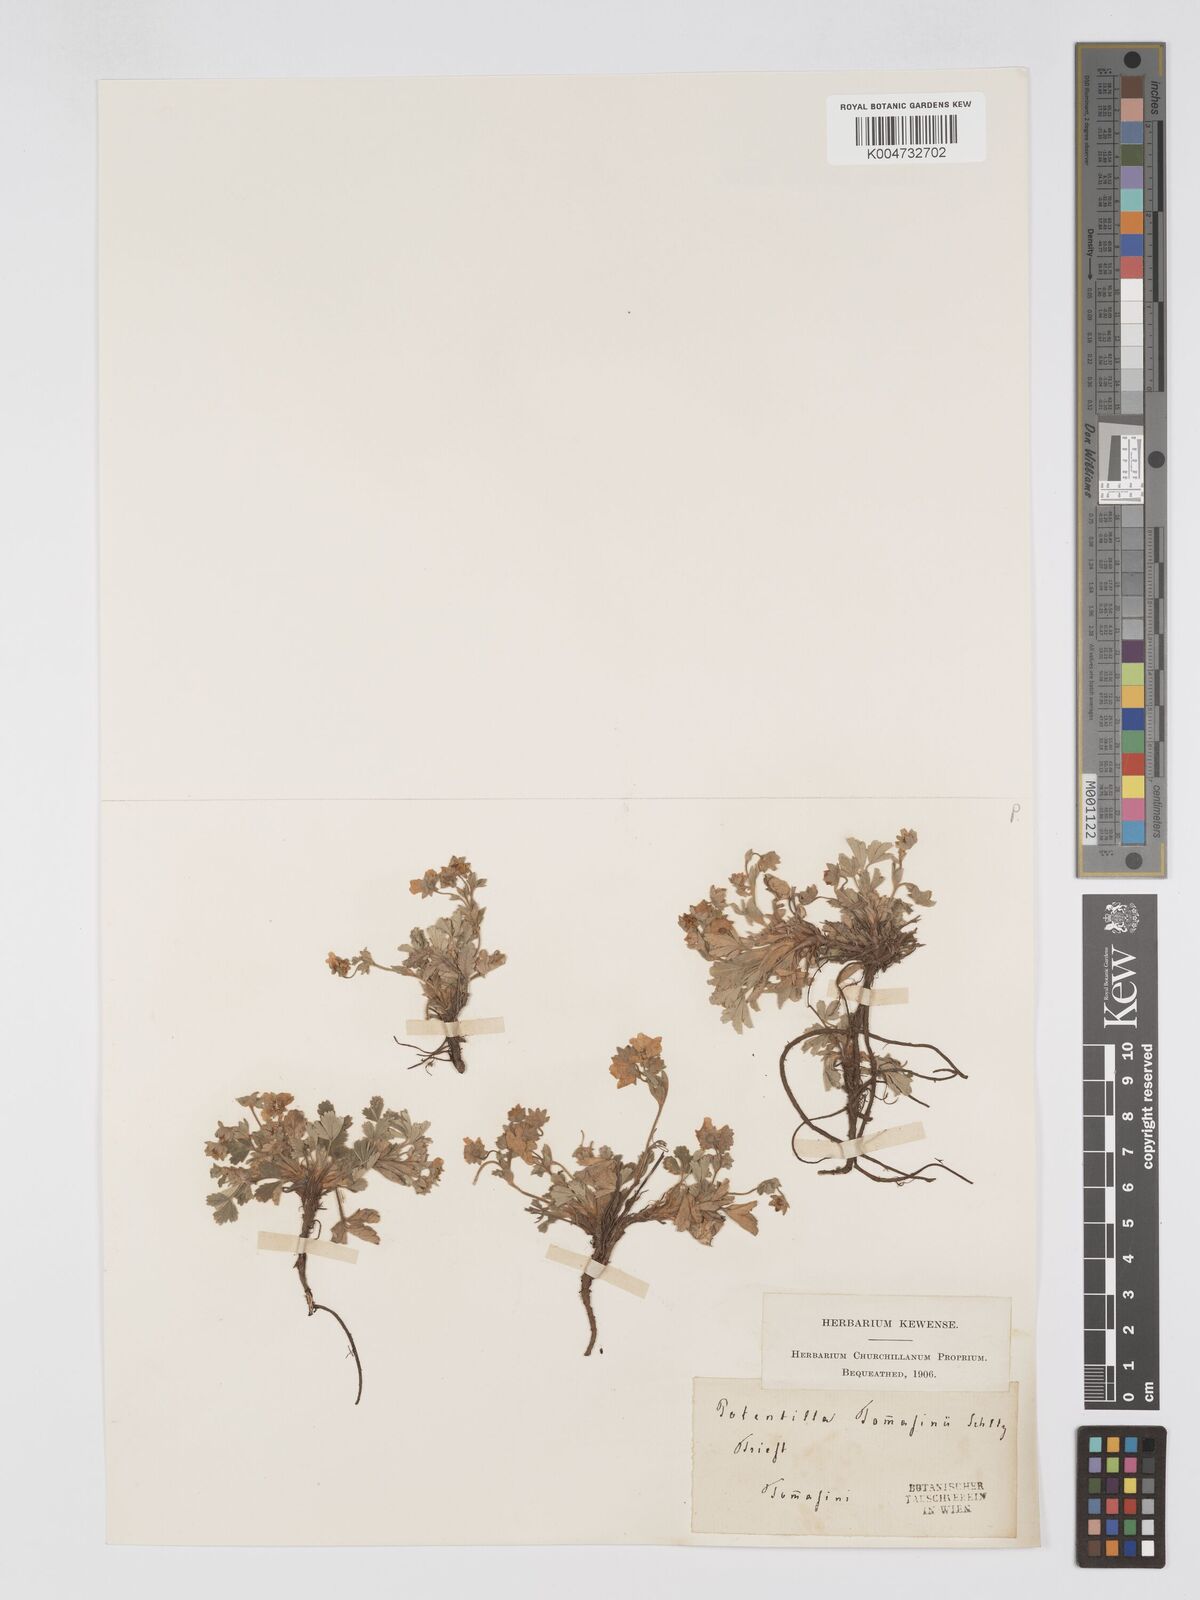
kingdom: Plantae
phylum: Tracheophyta
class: Magnoliopsida
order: Rosales
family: Rosaceae
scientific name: Rosaceae
